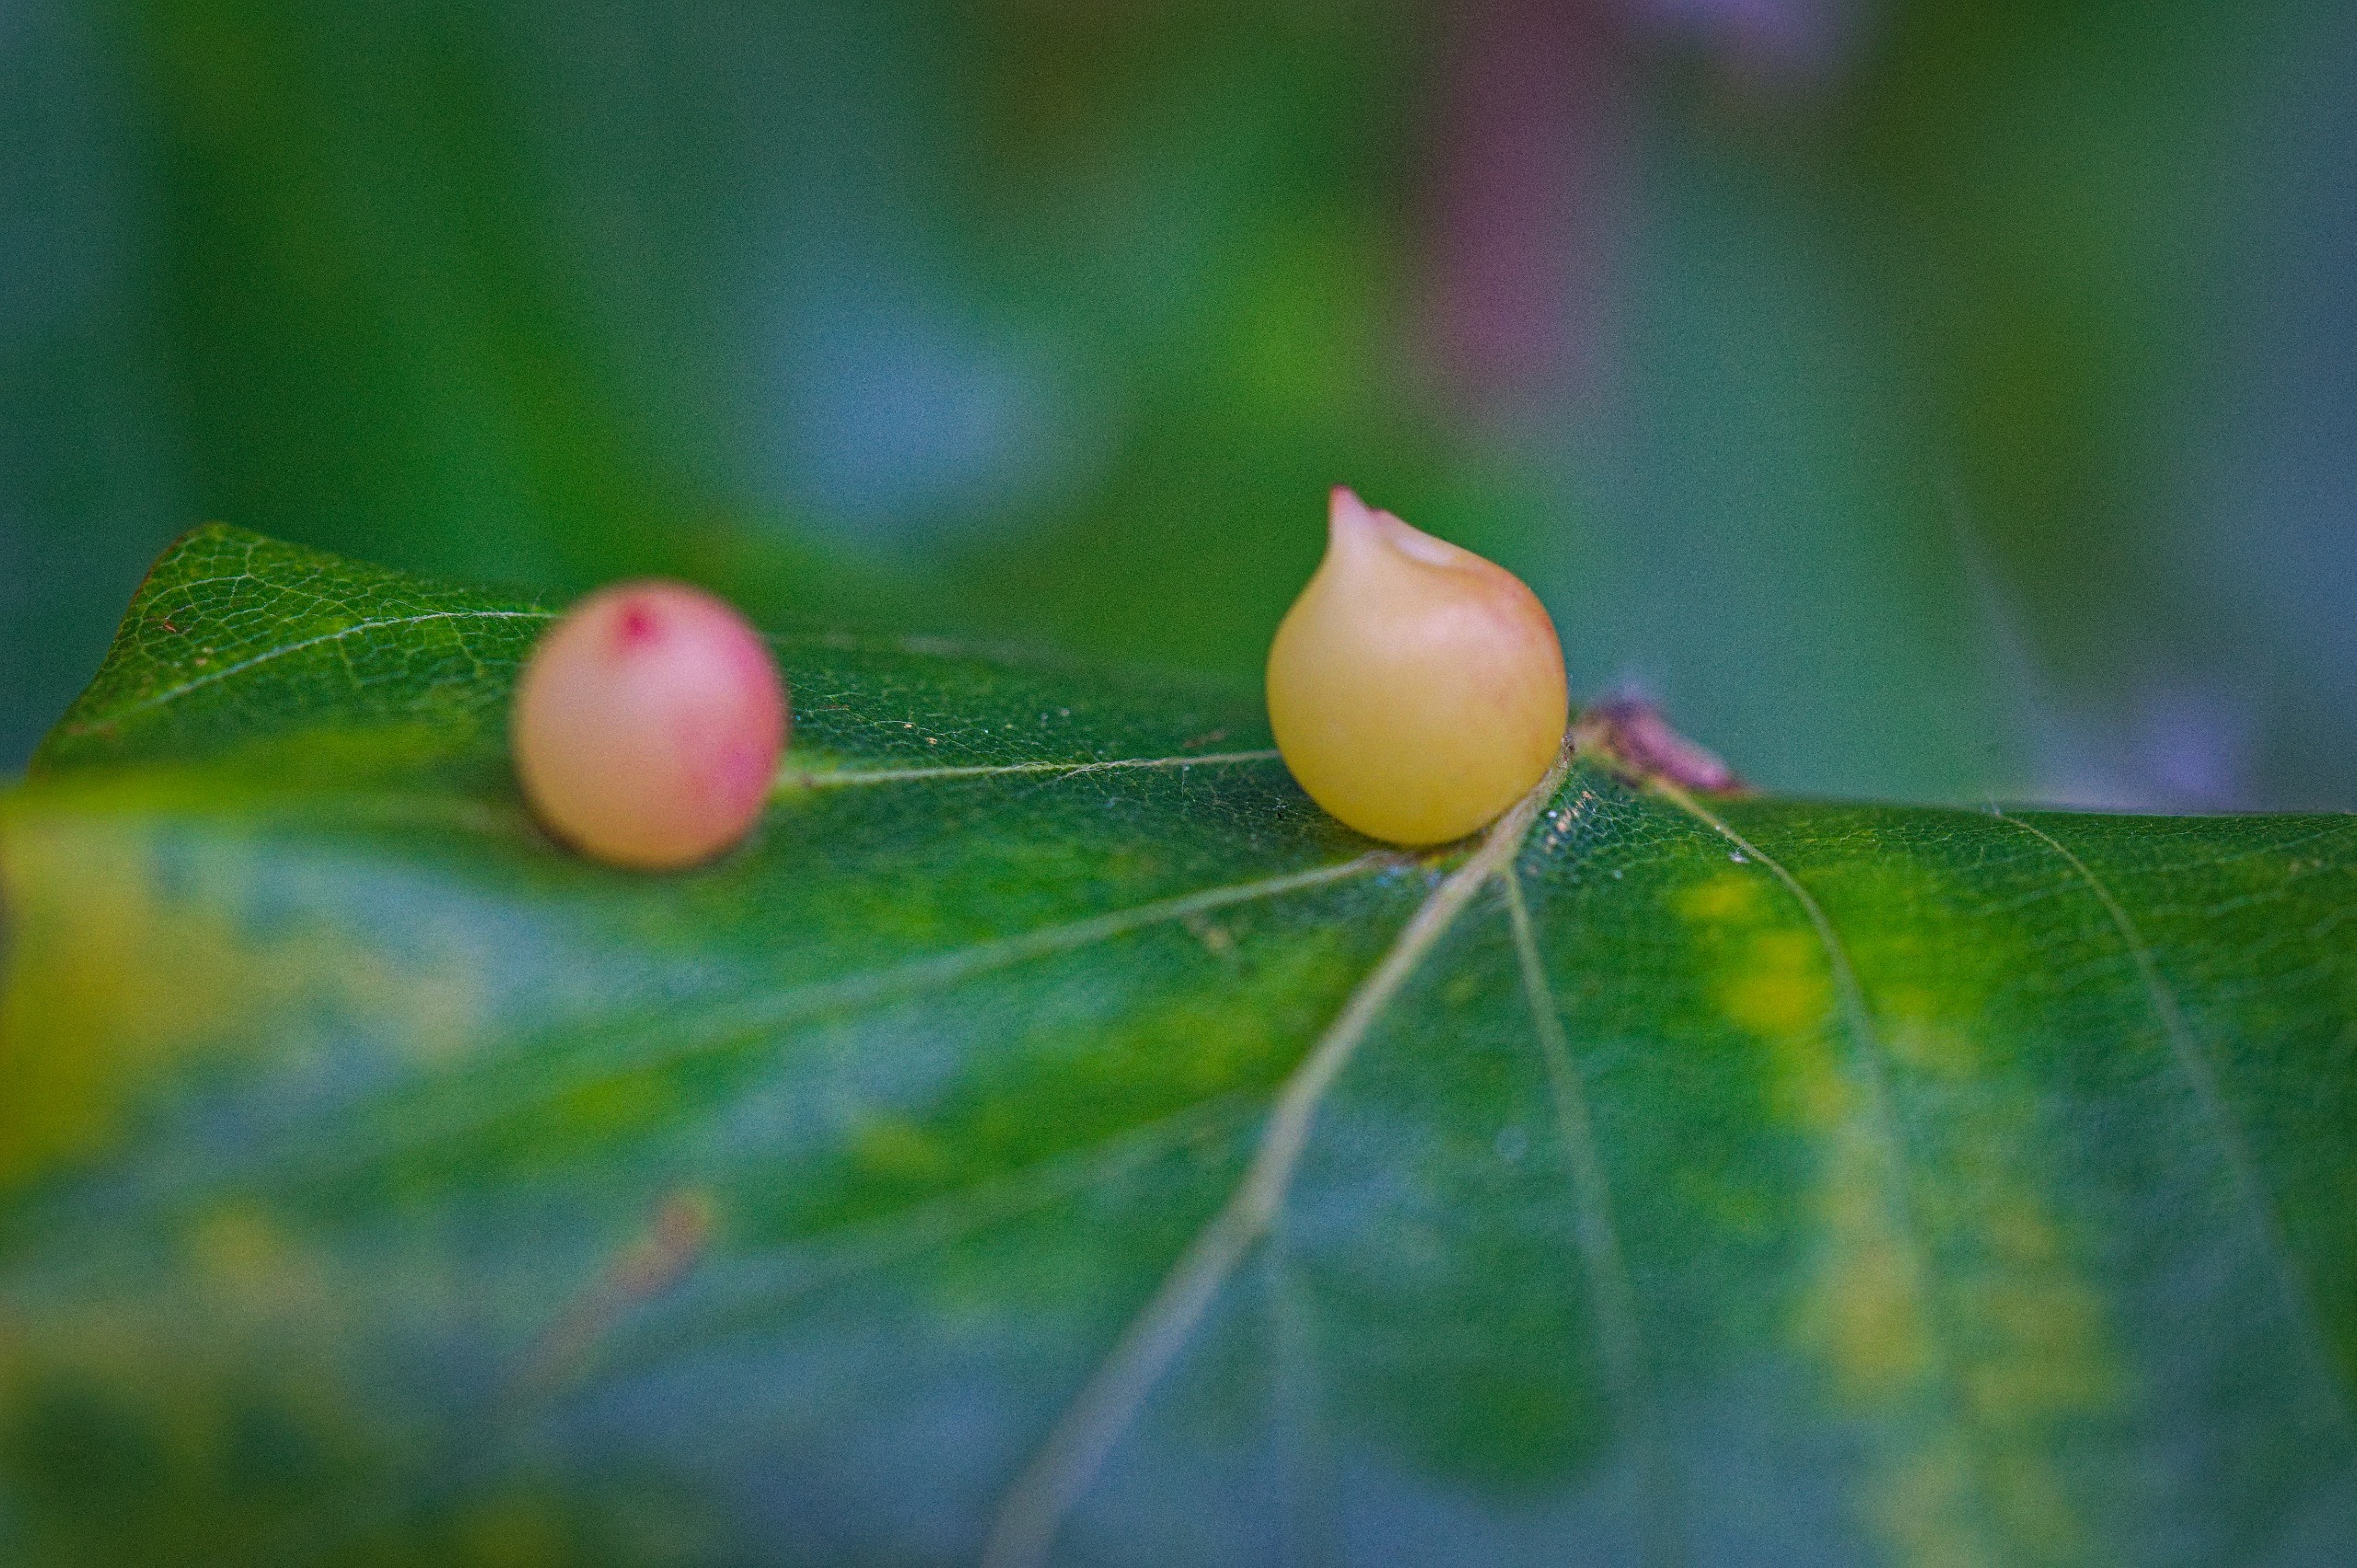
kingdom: Animalia
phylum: Arthropoda
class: Insecta
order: Diptera
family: Cecidomyiidae
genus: Mikiola
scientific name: Mikiola fagi
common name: Bøgegalmyg
